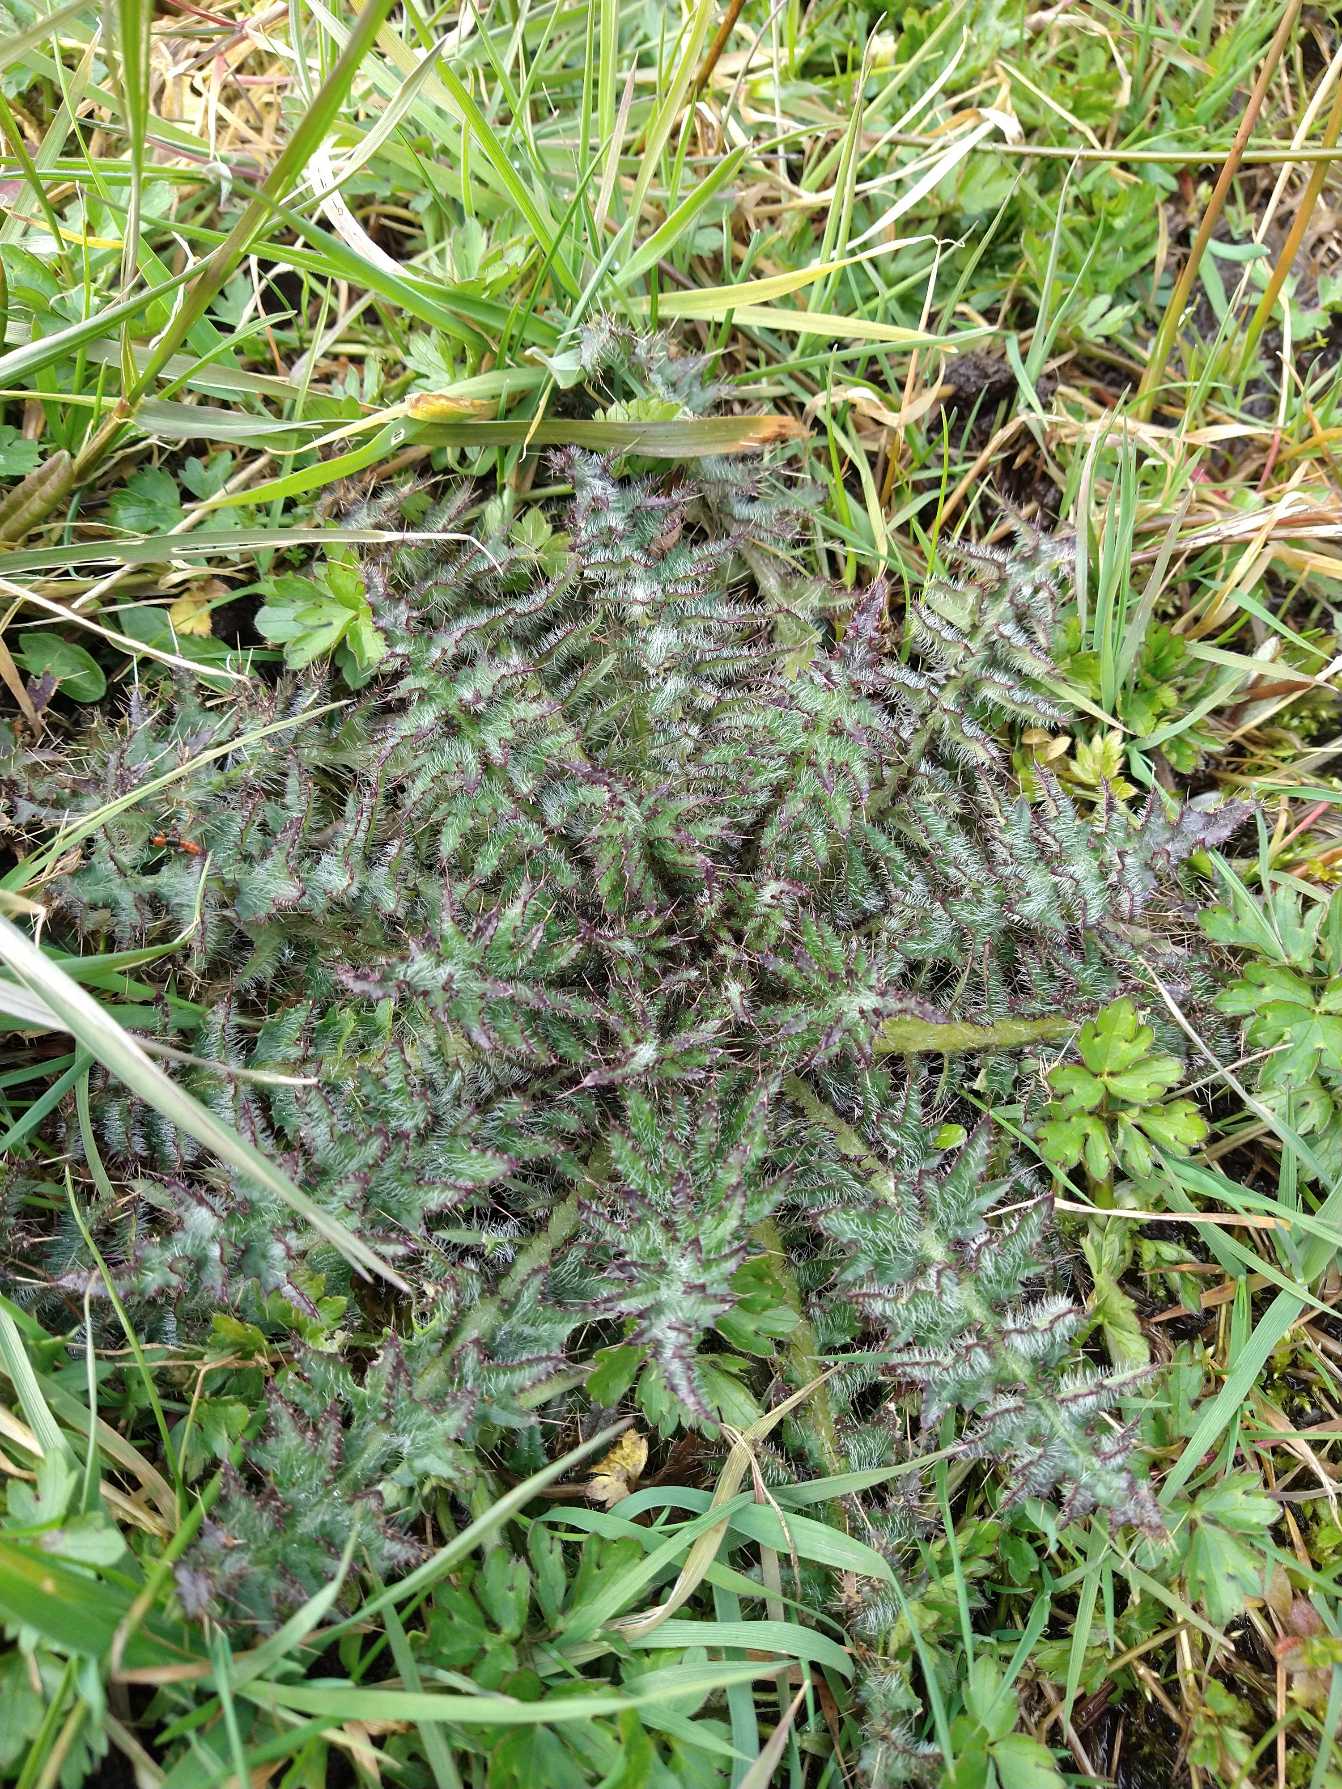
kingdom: Plantae
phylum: Tracheophyta
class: Magnoliopsida
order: Asterales
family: Asteraceae
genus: Cirsium
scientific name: Cirsium palustre
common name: Kær-tidsel
